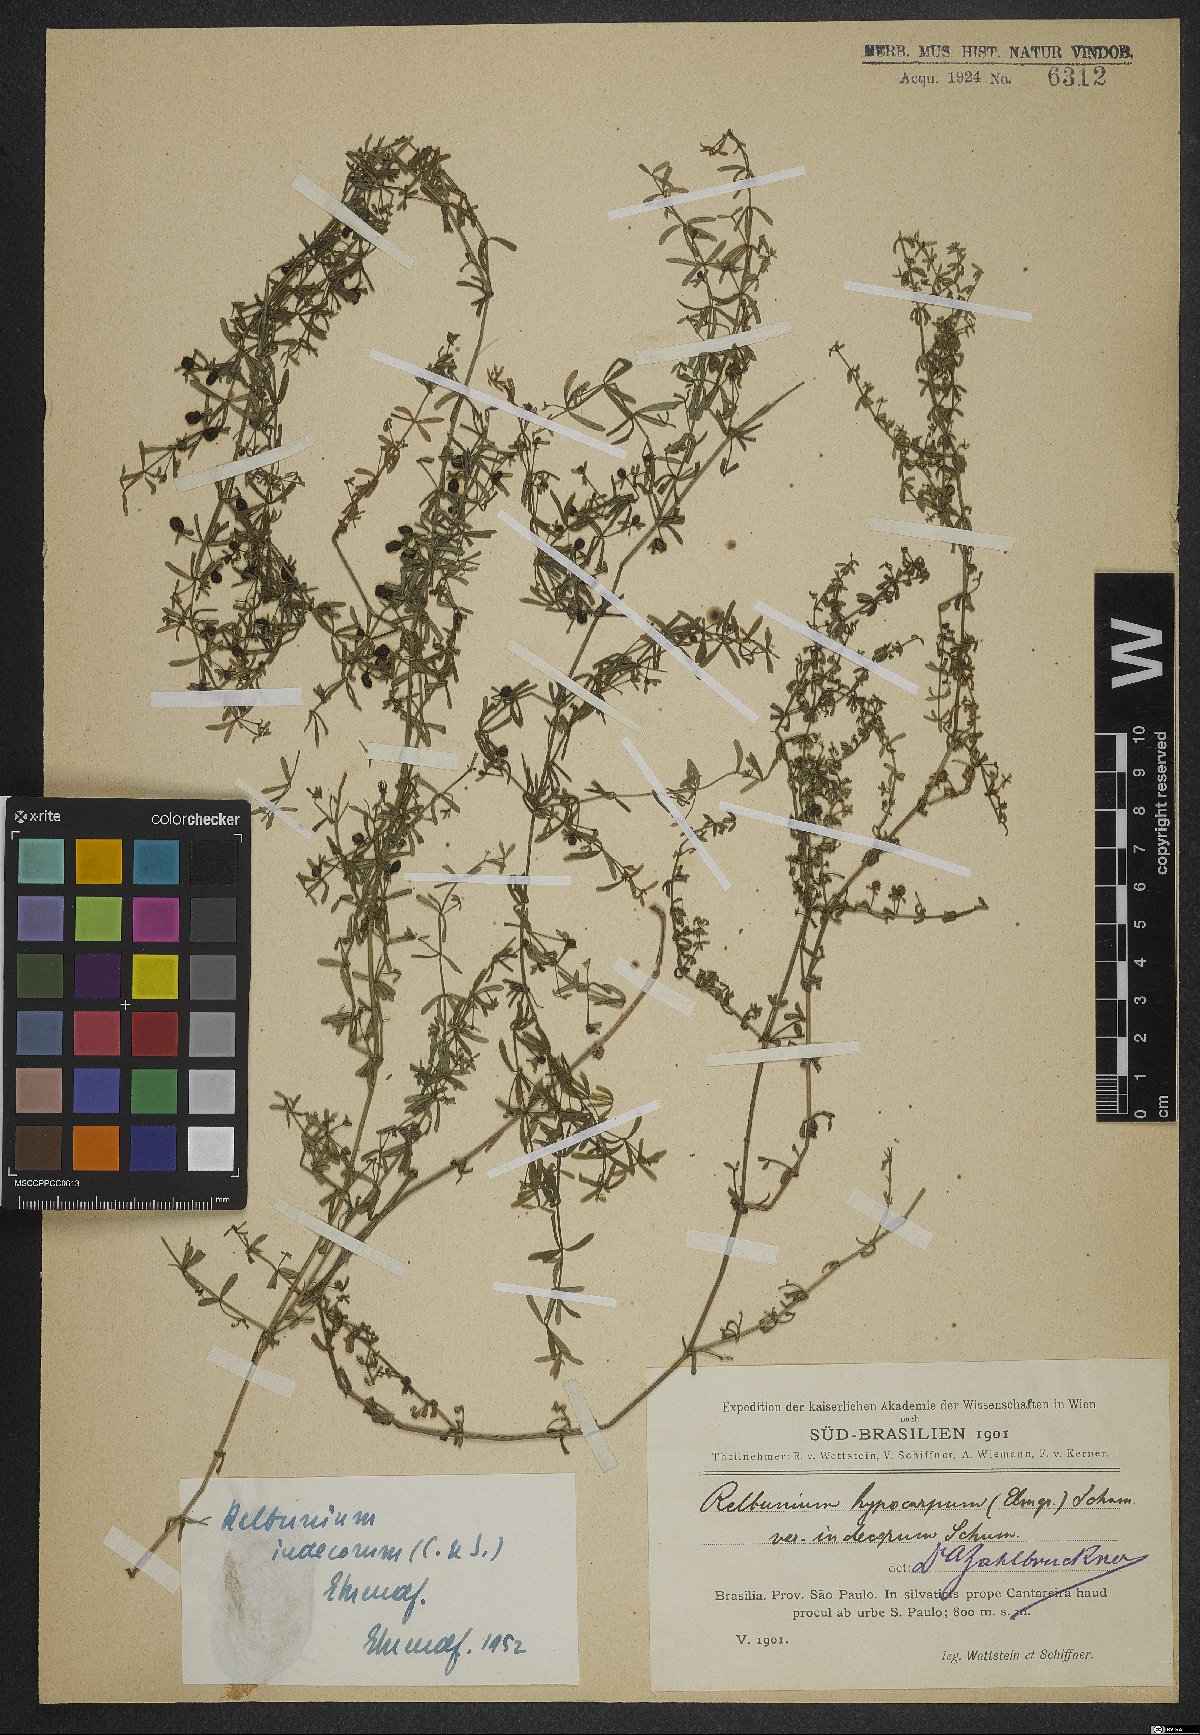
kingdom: Plantae
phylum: Tracheophyta
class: Magnoliopsida
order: Gentianales
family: Rubiaceae
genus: Galium
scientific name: Galium hypocarpium
